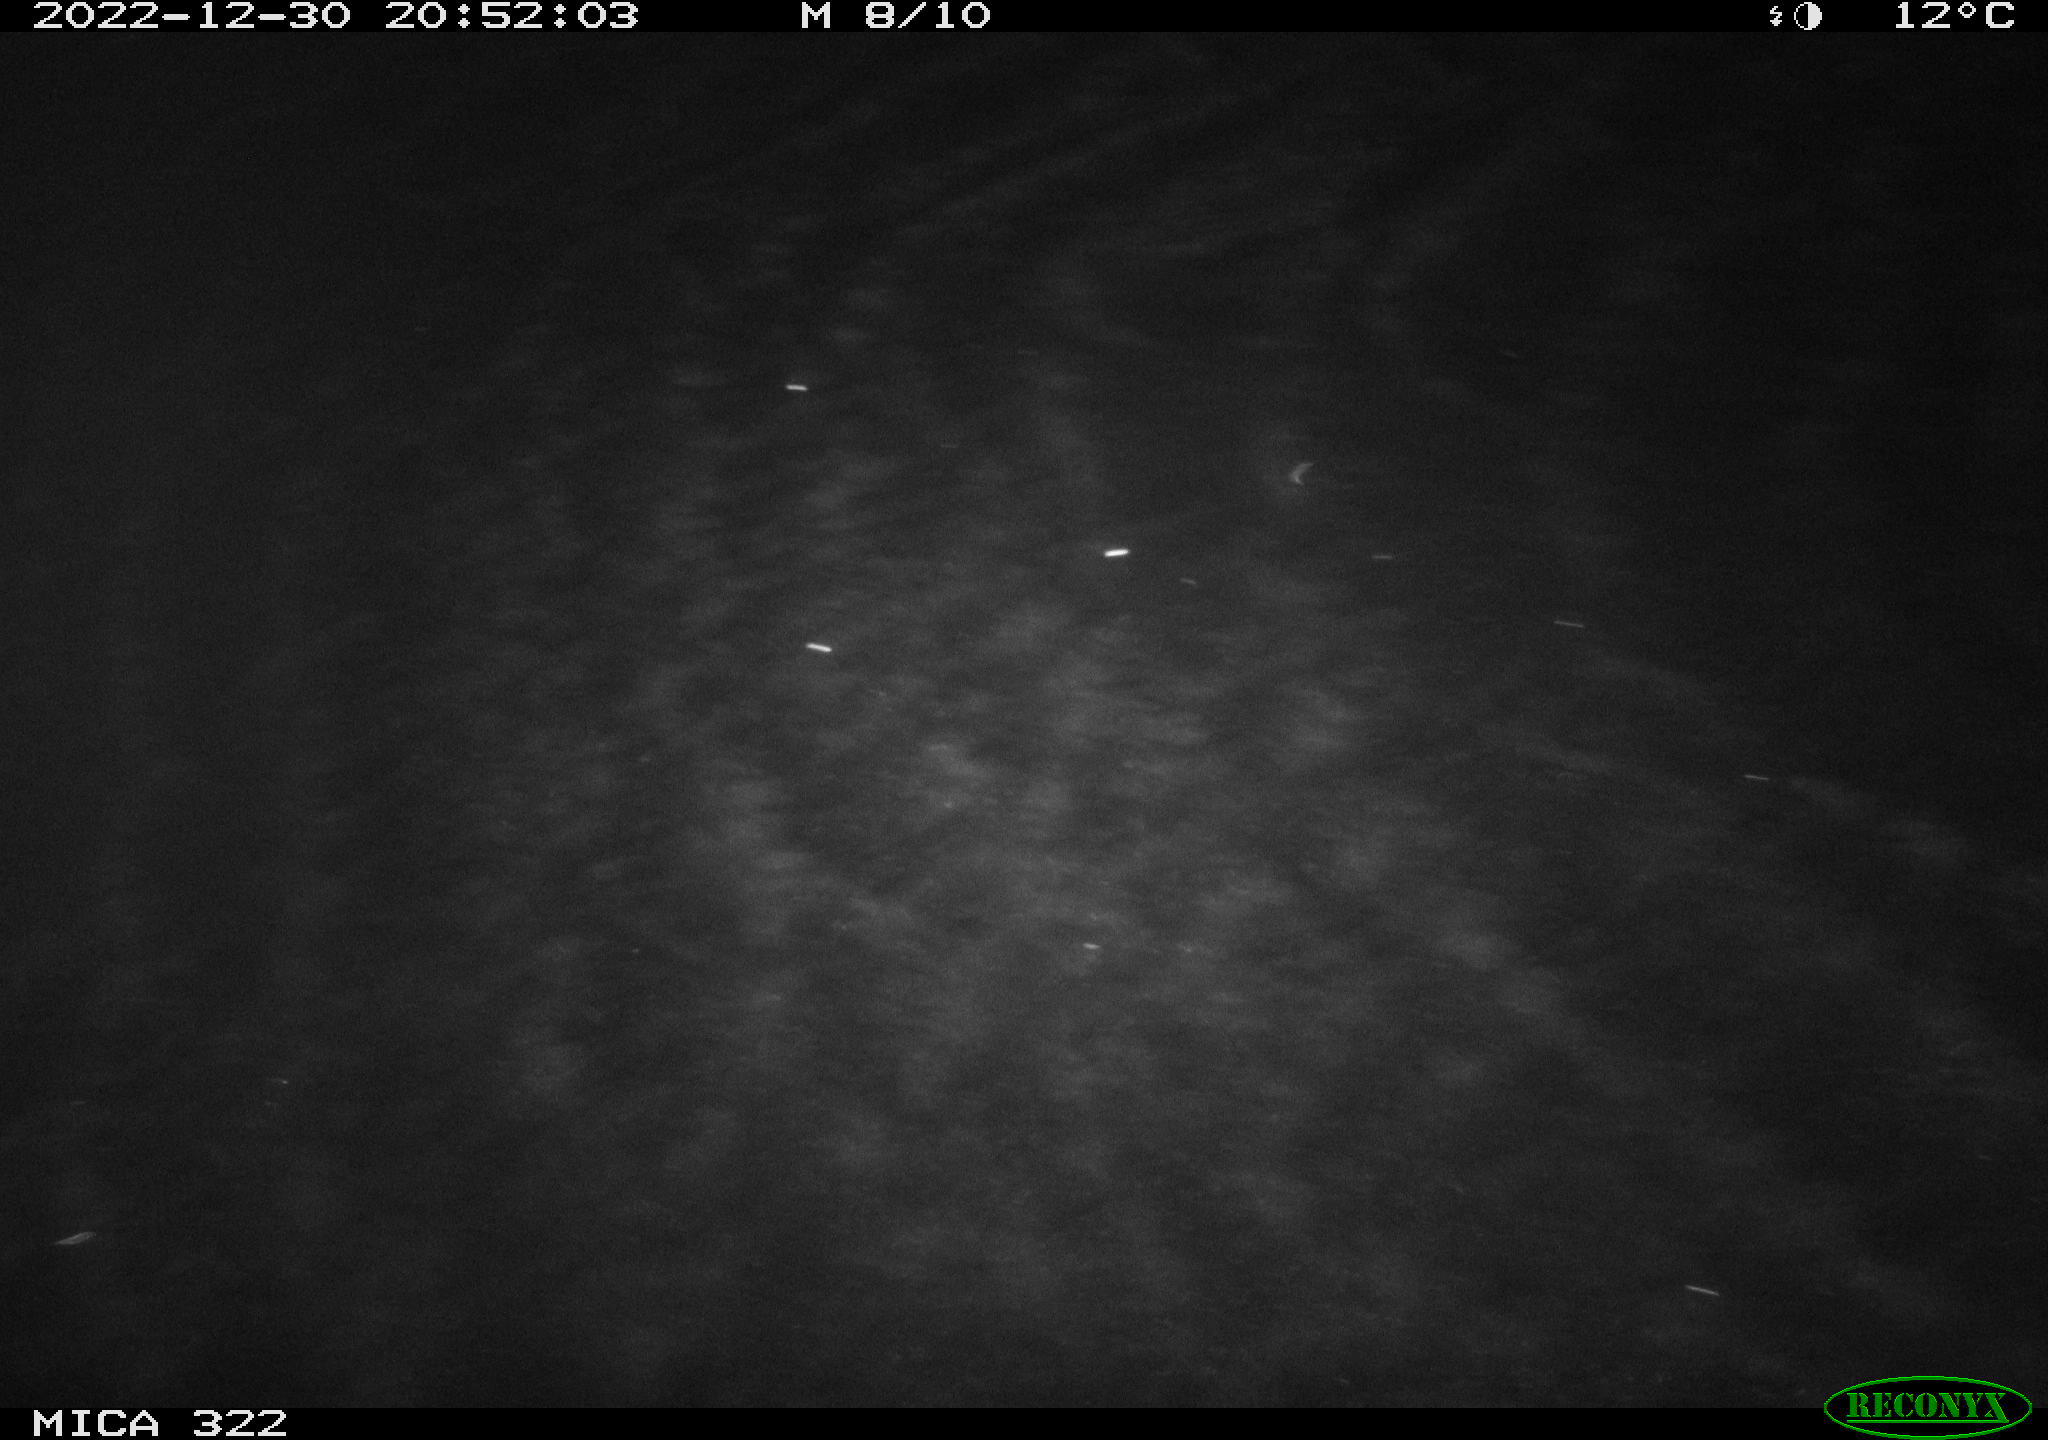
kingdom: Animalia
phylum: Chordata
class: Aves
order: Anseriformes
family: Anatidae
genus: Anas
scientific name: Anas
